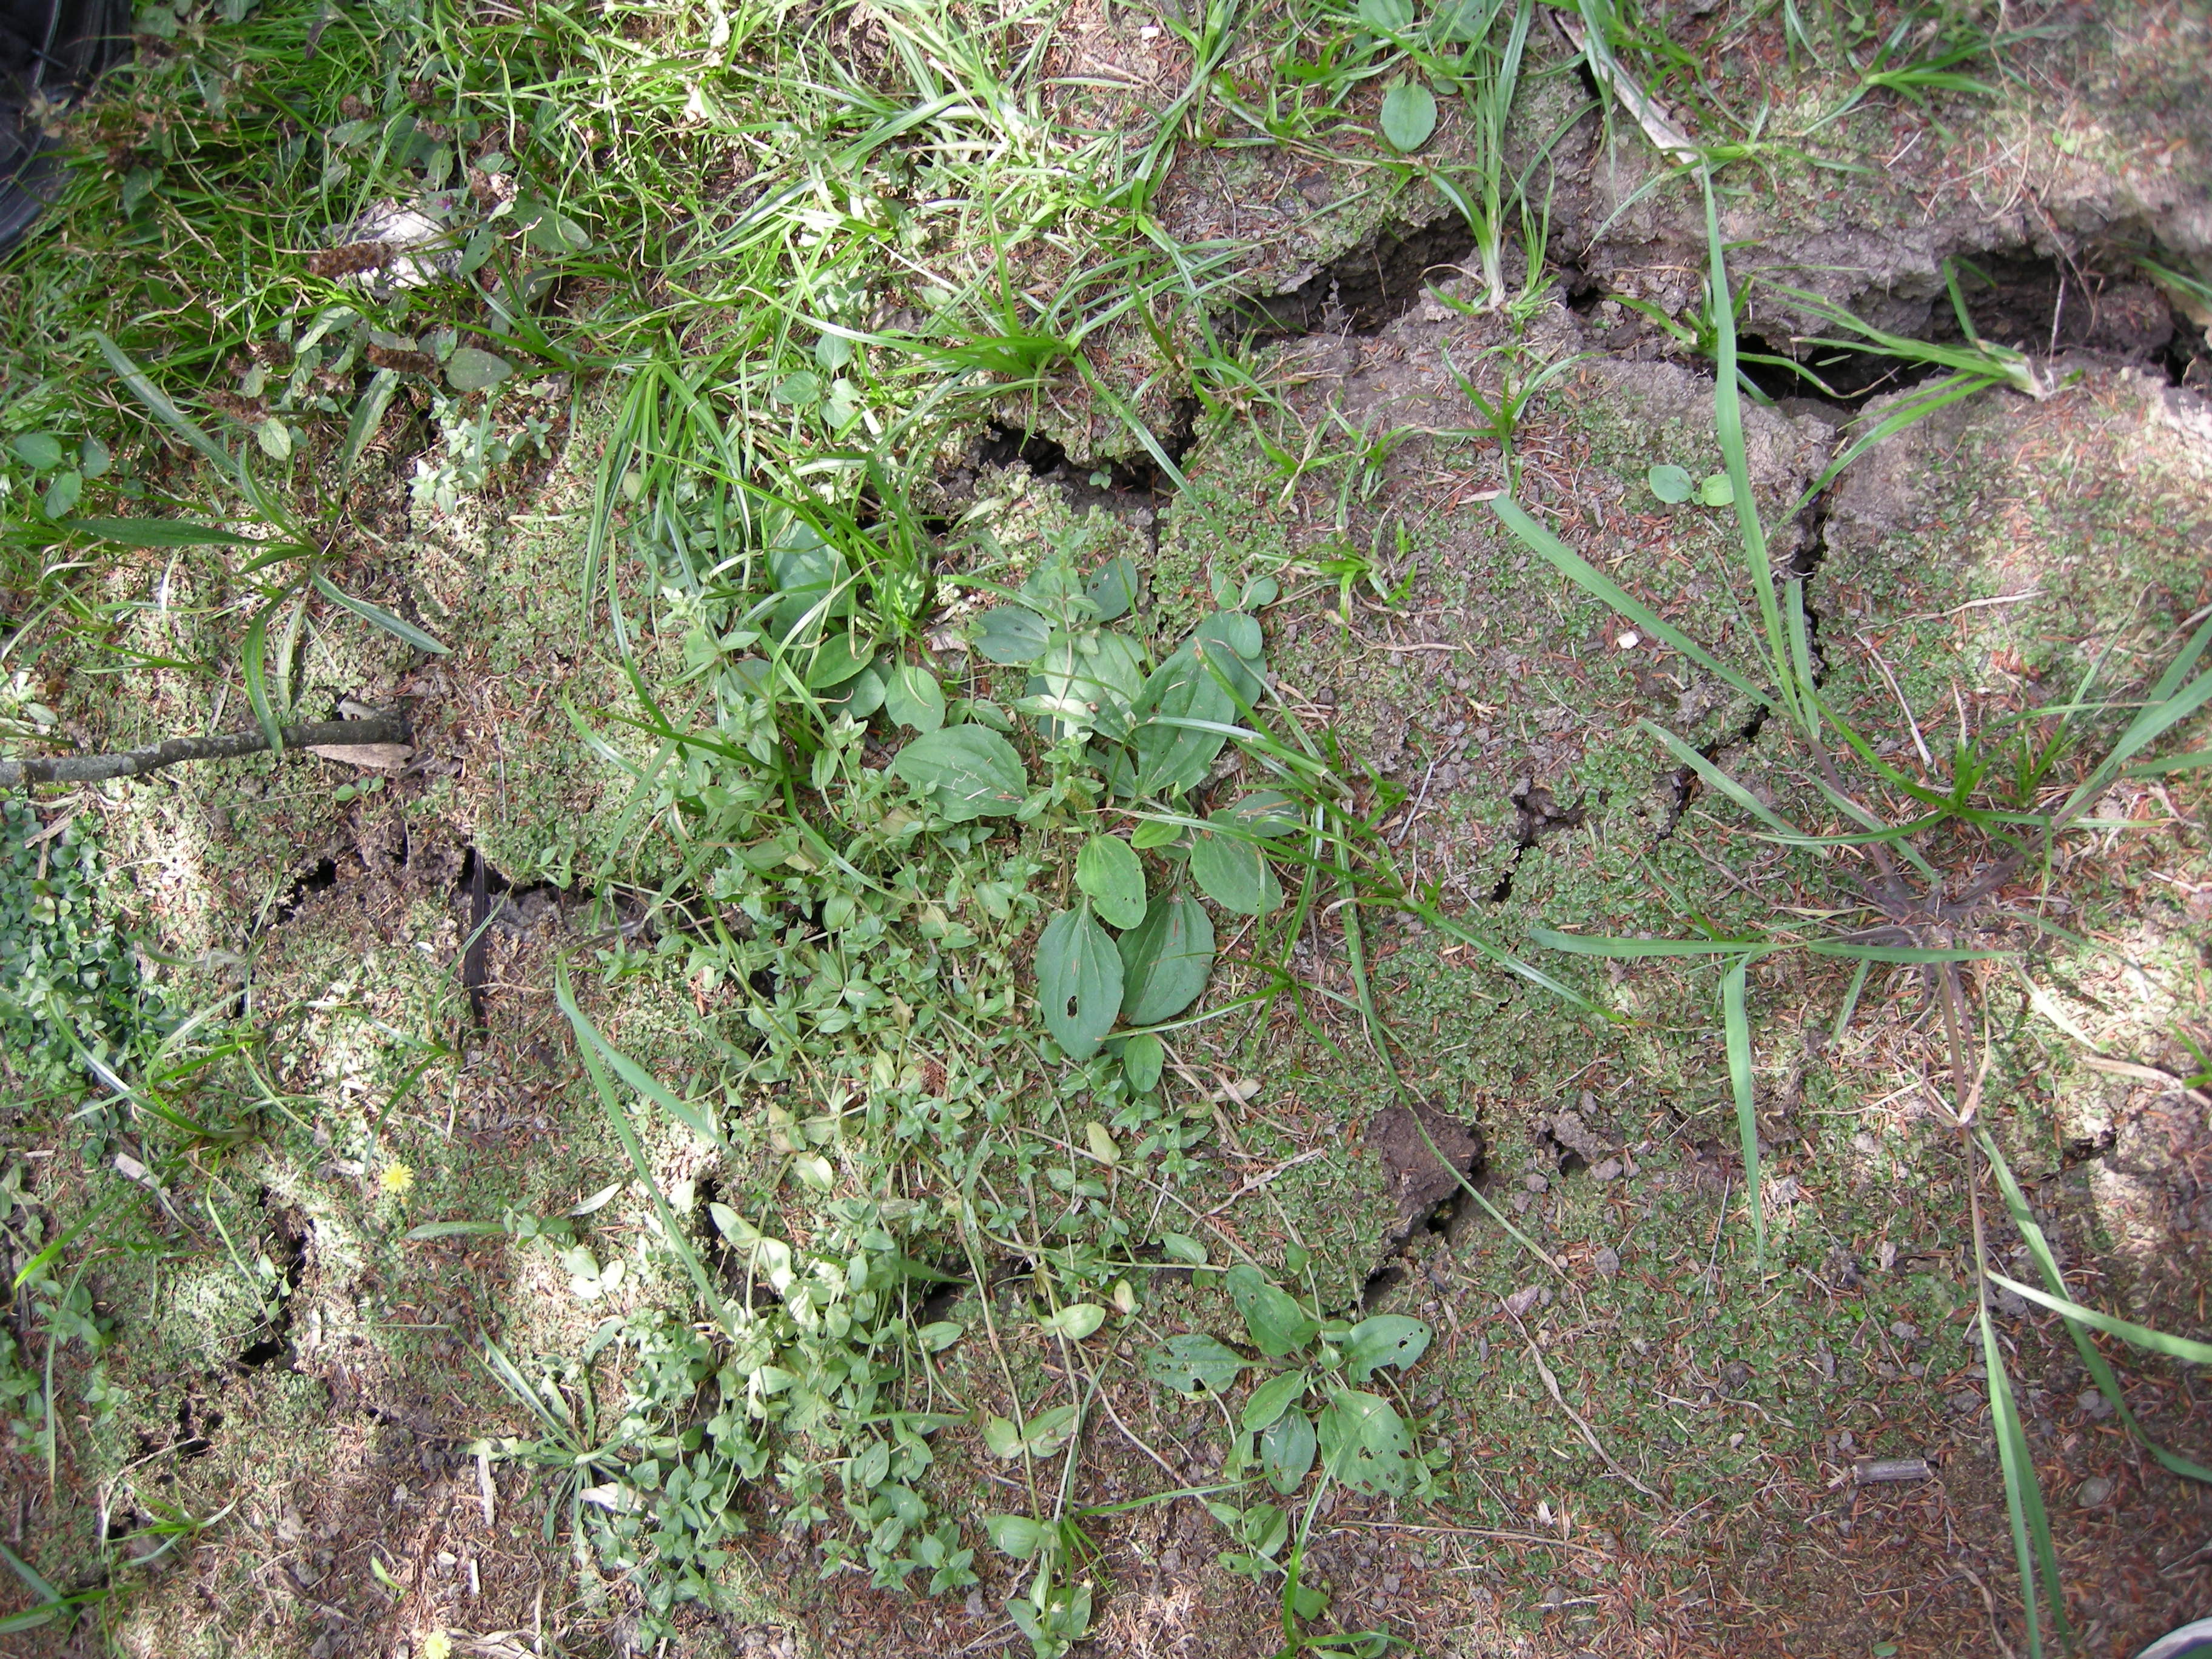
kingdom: Plantae
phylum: Marchantiophyta
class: Marchantiopsida
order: Lunulariales
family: Lunulariaceae
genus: Lunularia
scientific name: Lunularia cruciata
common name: Crescent-cup liverwort
